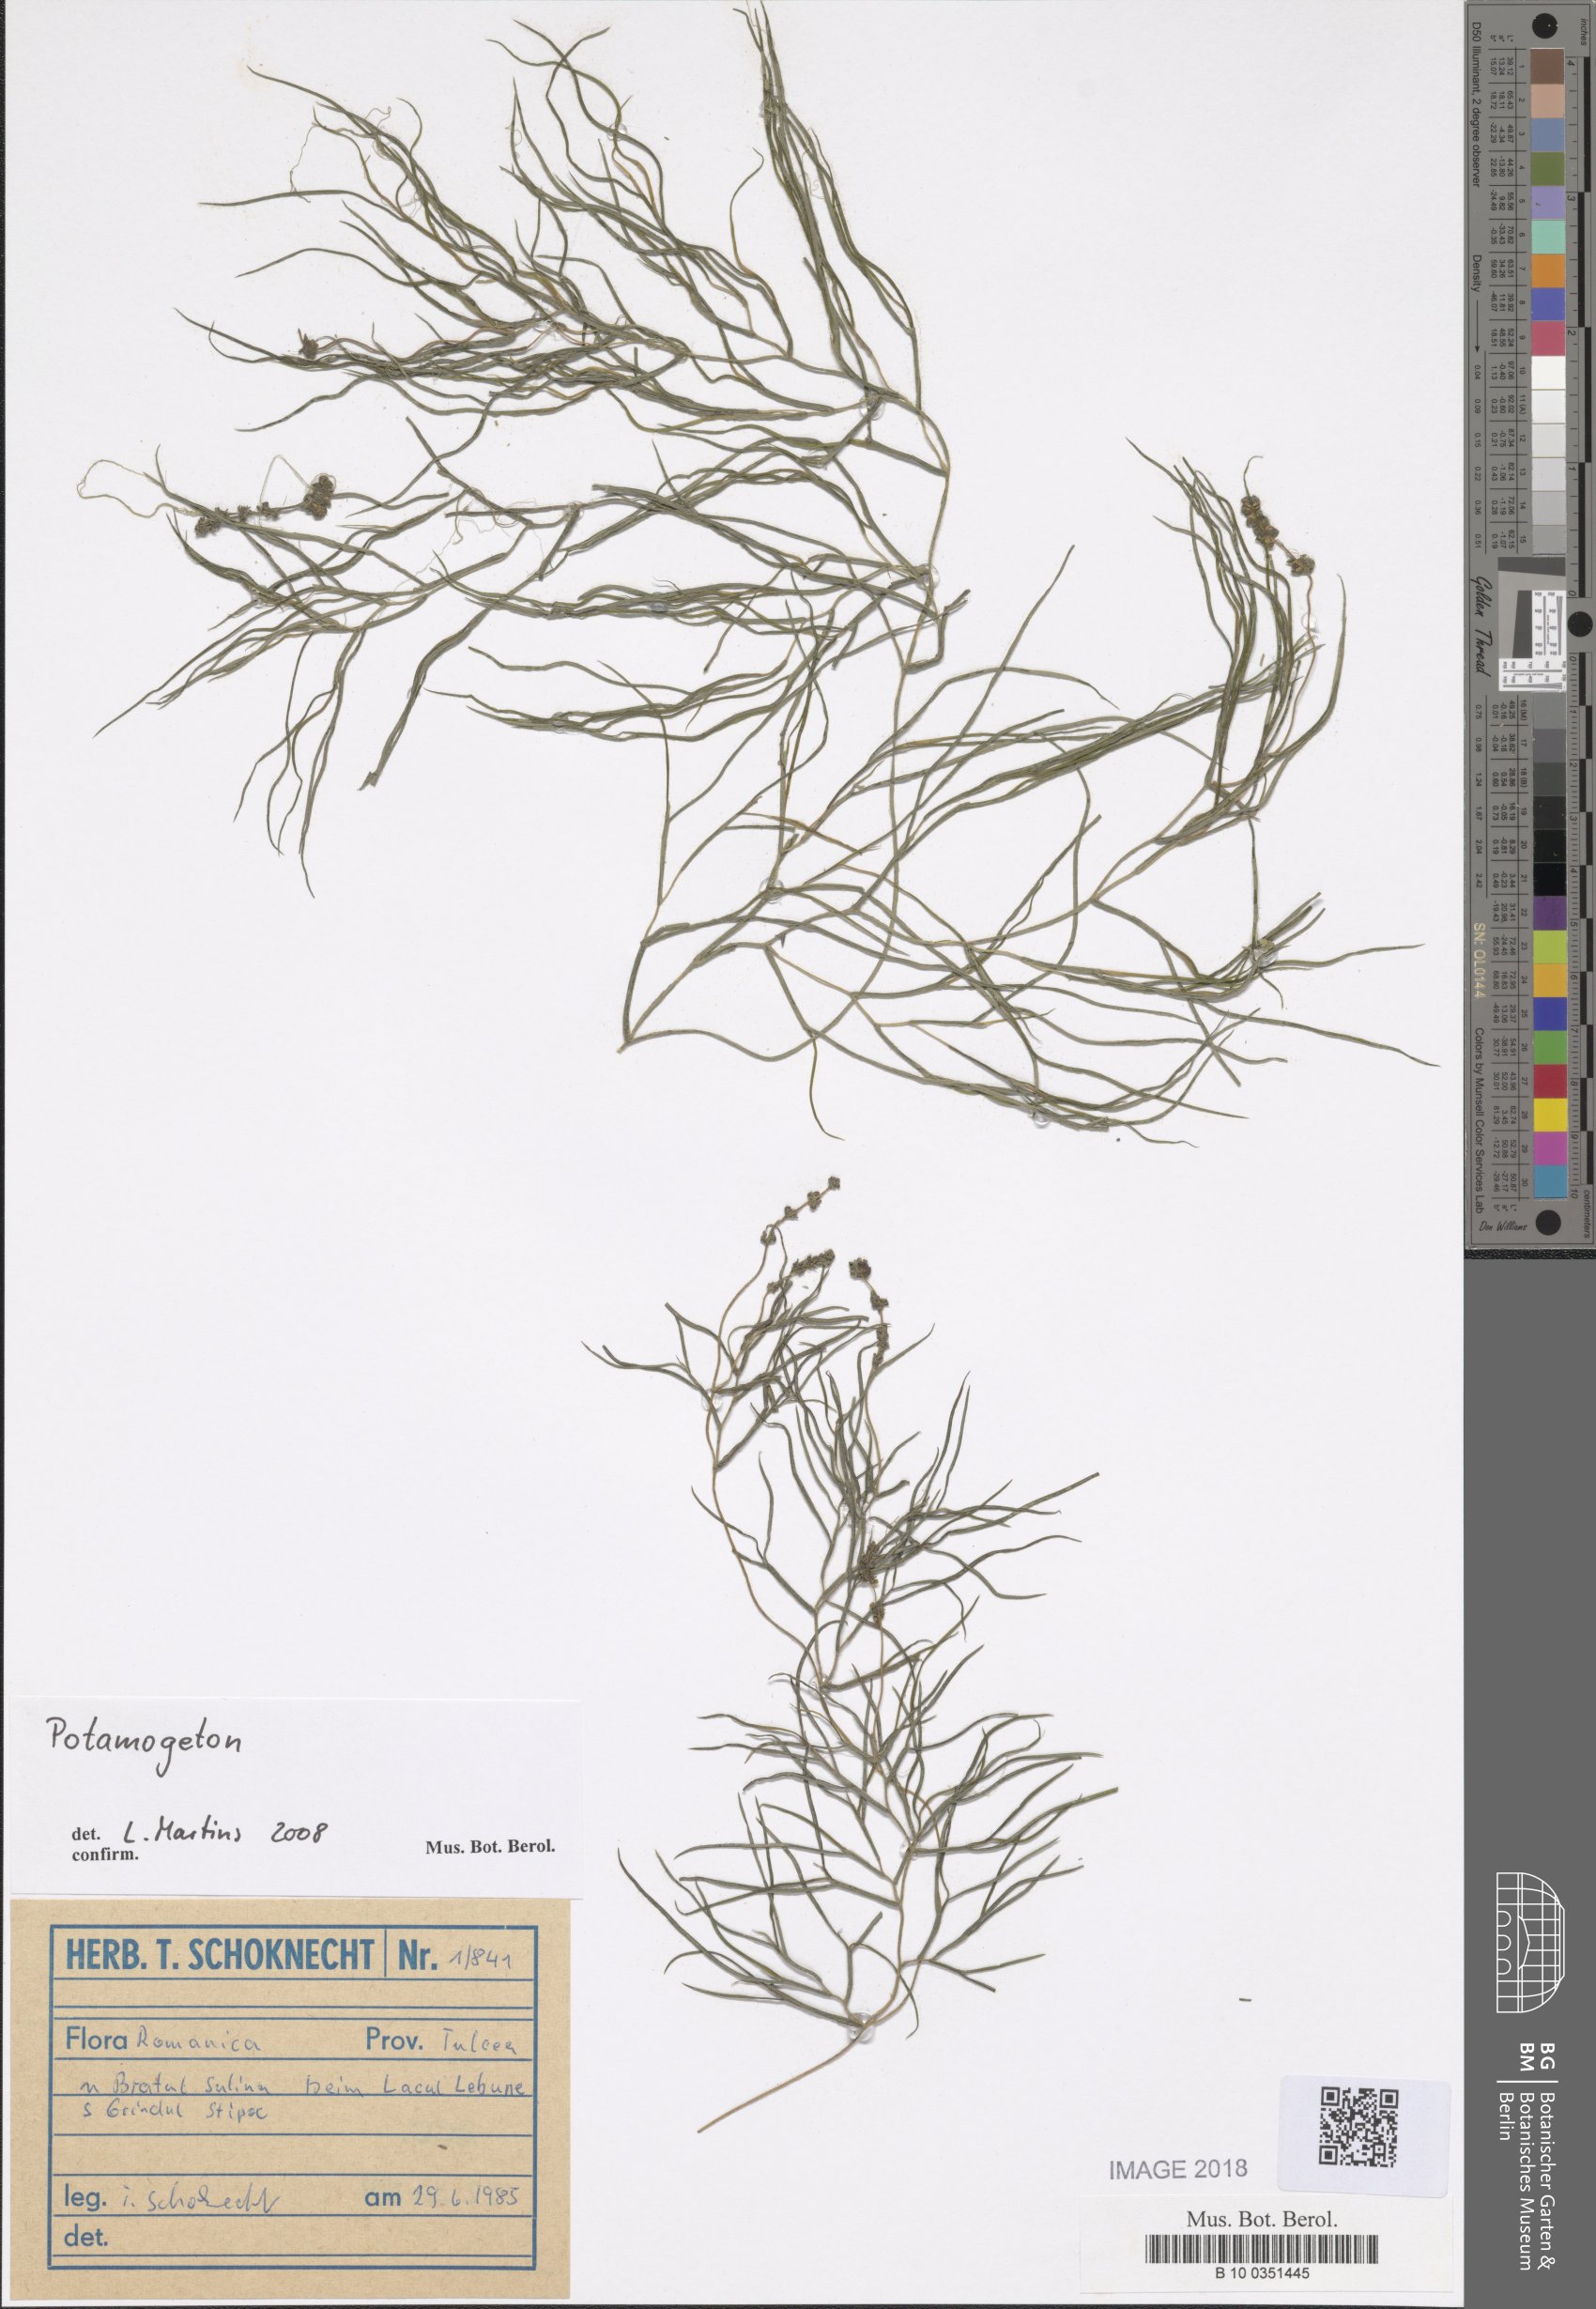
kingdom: Plantae
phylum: Tracheophyta
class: Liliopsida
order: Alismatales
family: Potamogetonaceae
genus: Stuckenia
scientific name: Stuckenia pectinata
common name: Sago pondweed
